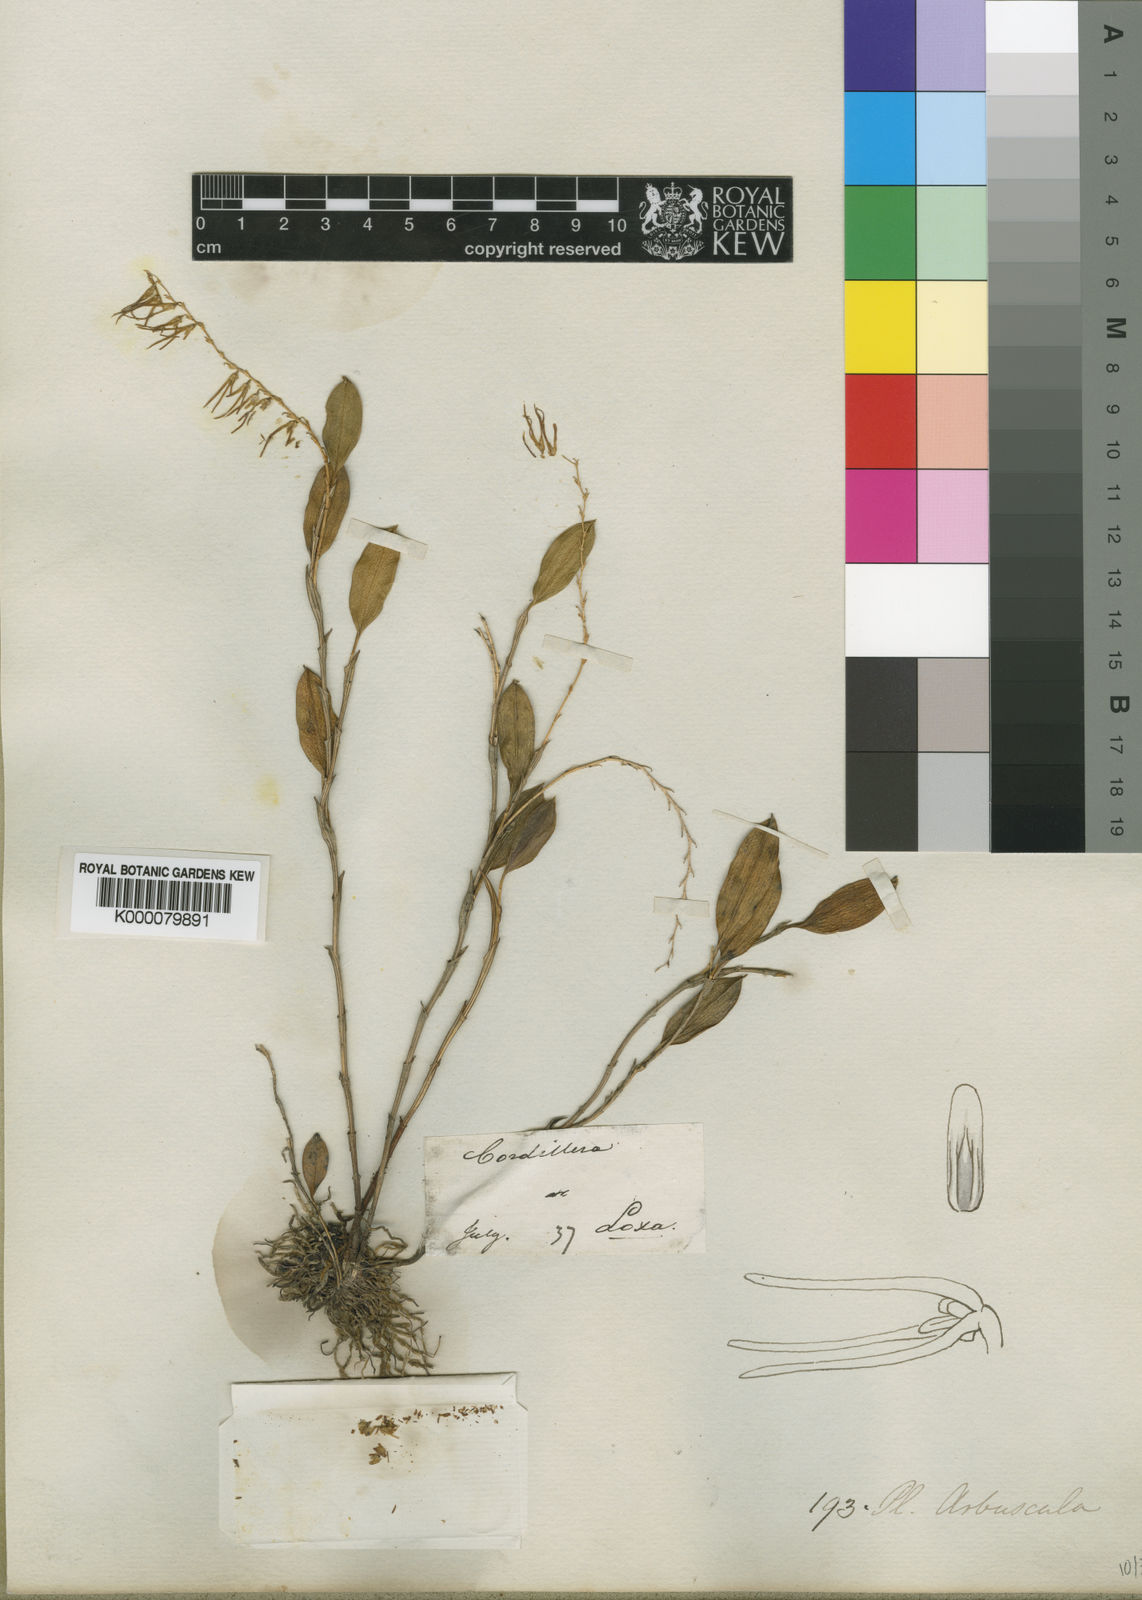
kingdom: Plantae
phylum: Tracheophyta
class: Liliopsida
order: Asparagales
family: Orchidaceae
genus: Trichosalpinx
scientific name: Trichosalpinx arbuscula
